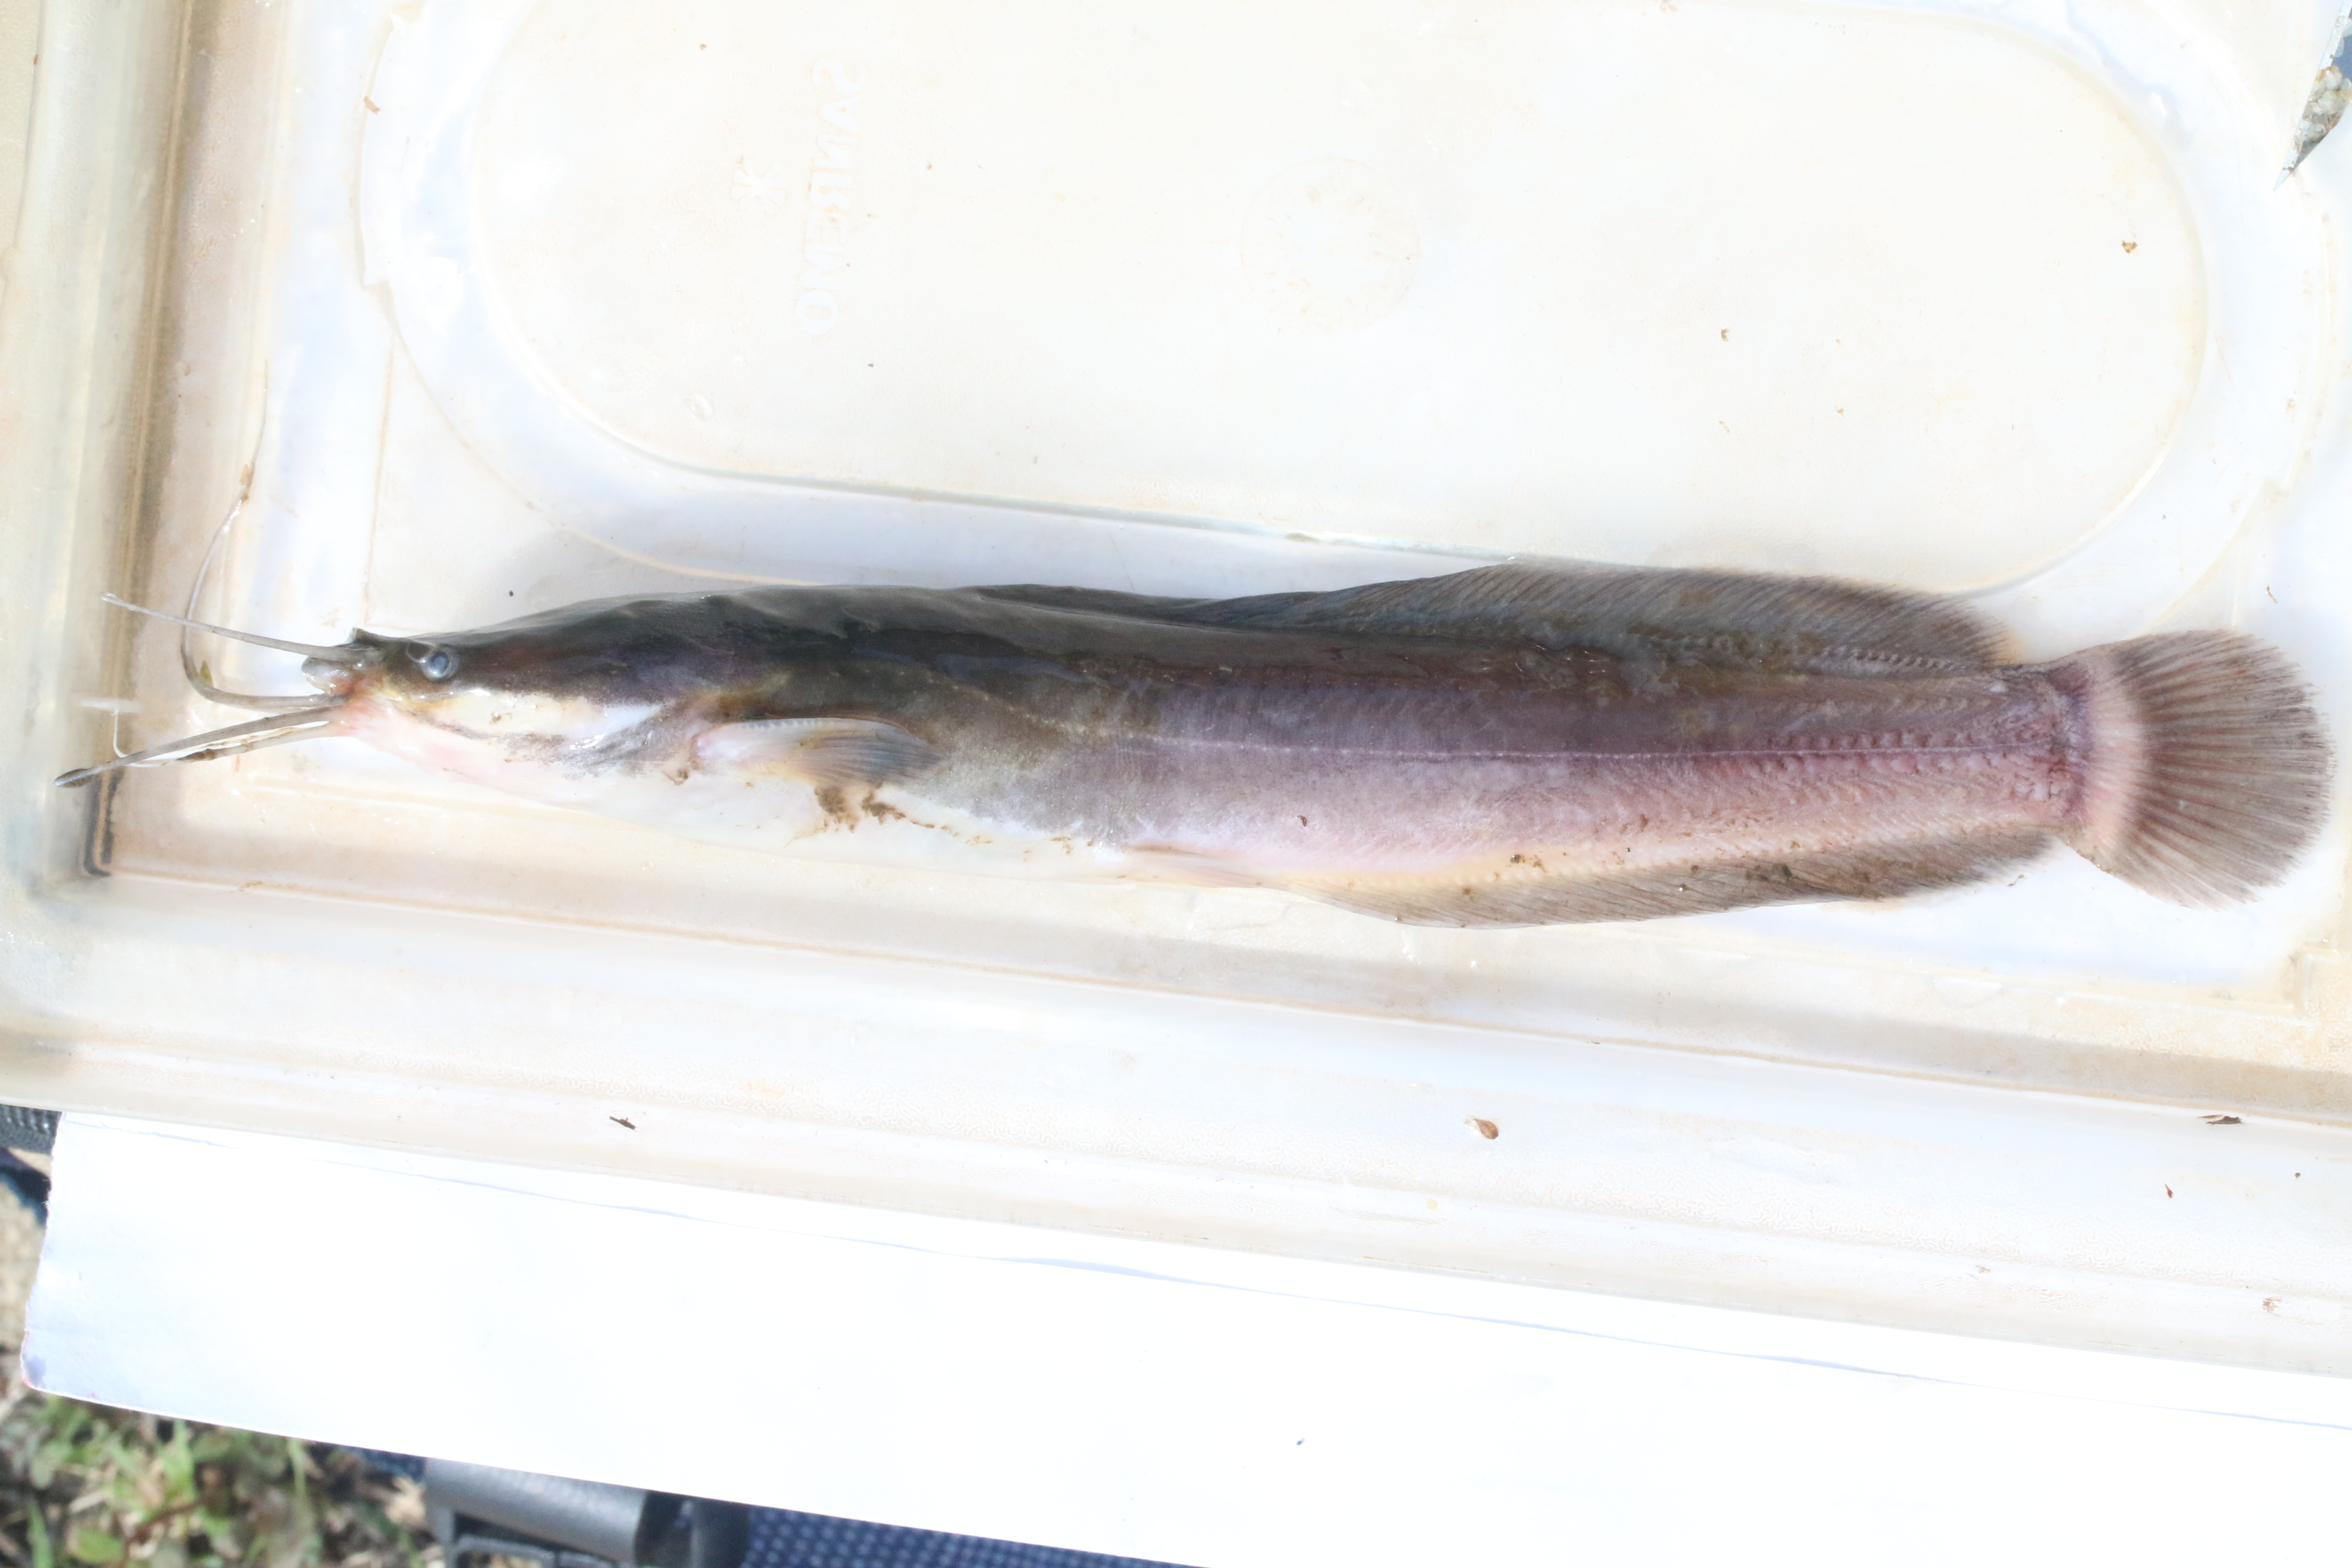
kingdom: Animalia
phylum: Chordata
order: Siluriformes
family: Clariidae
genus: Clarias
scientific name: Clarias gariepinus
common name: African catfish
